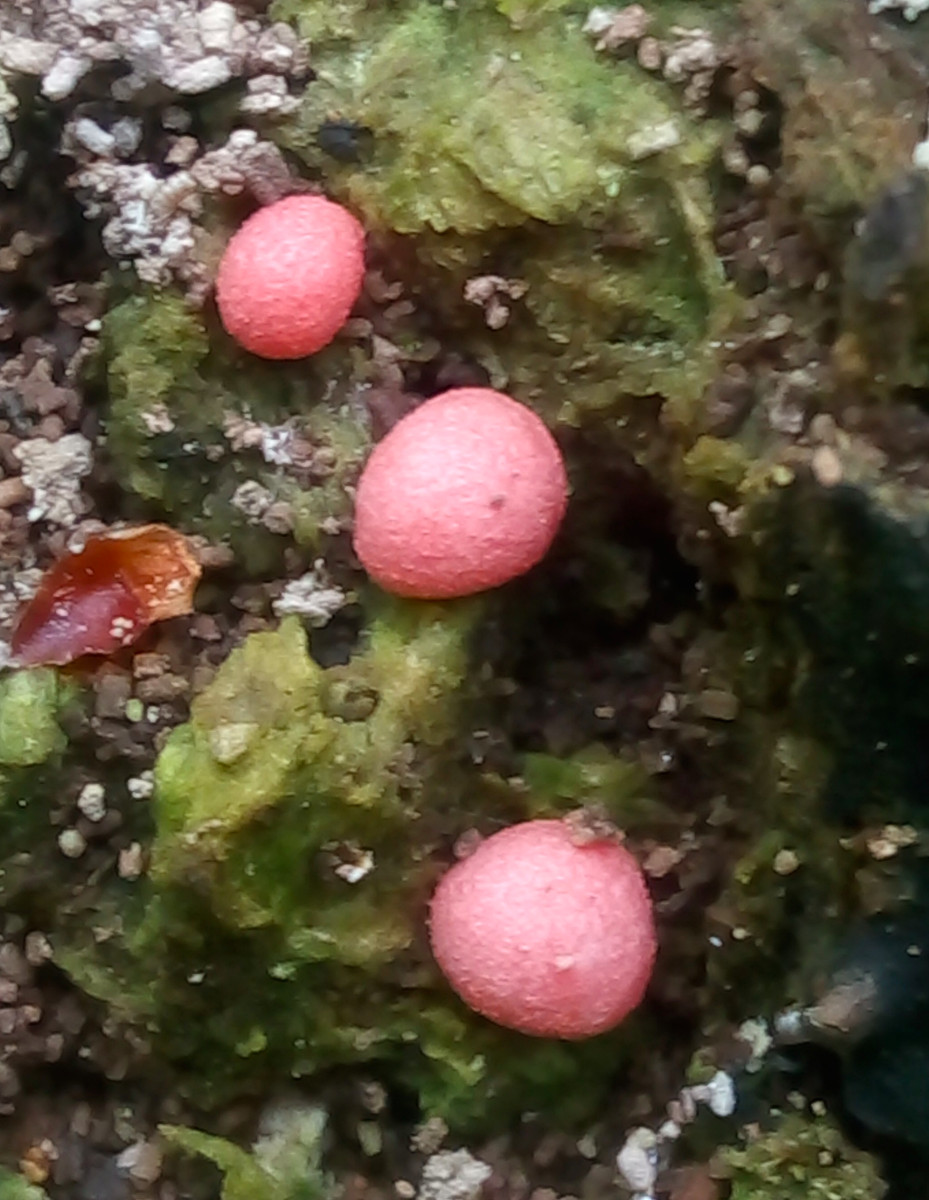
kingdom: Protozoa
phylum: Mycetozoa
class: Myxomycetes
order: Cribrariales
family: Tubiferaceae
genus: Lycogala
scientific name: Lycogala epidendrum
